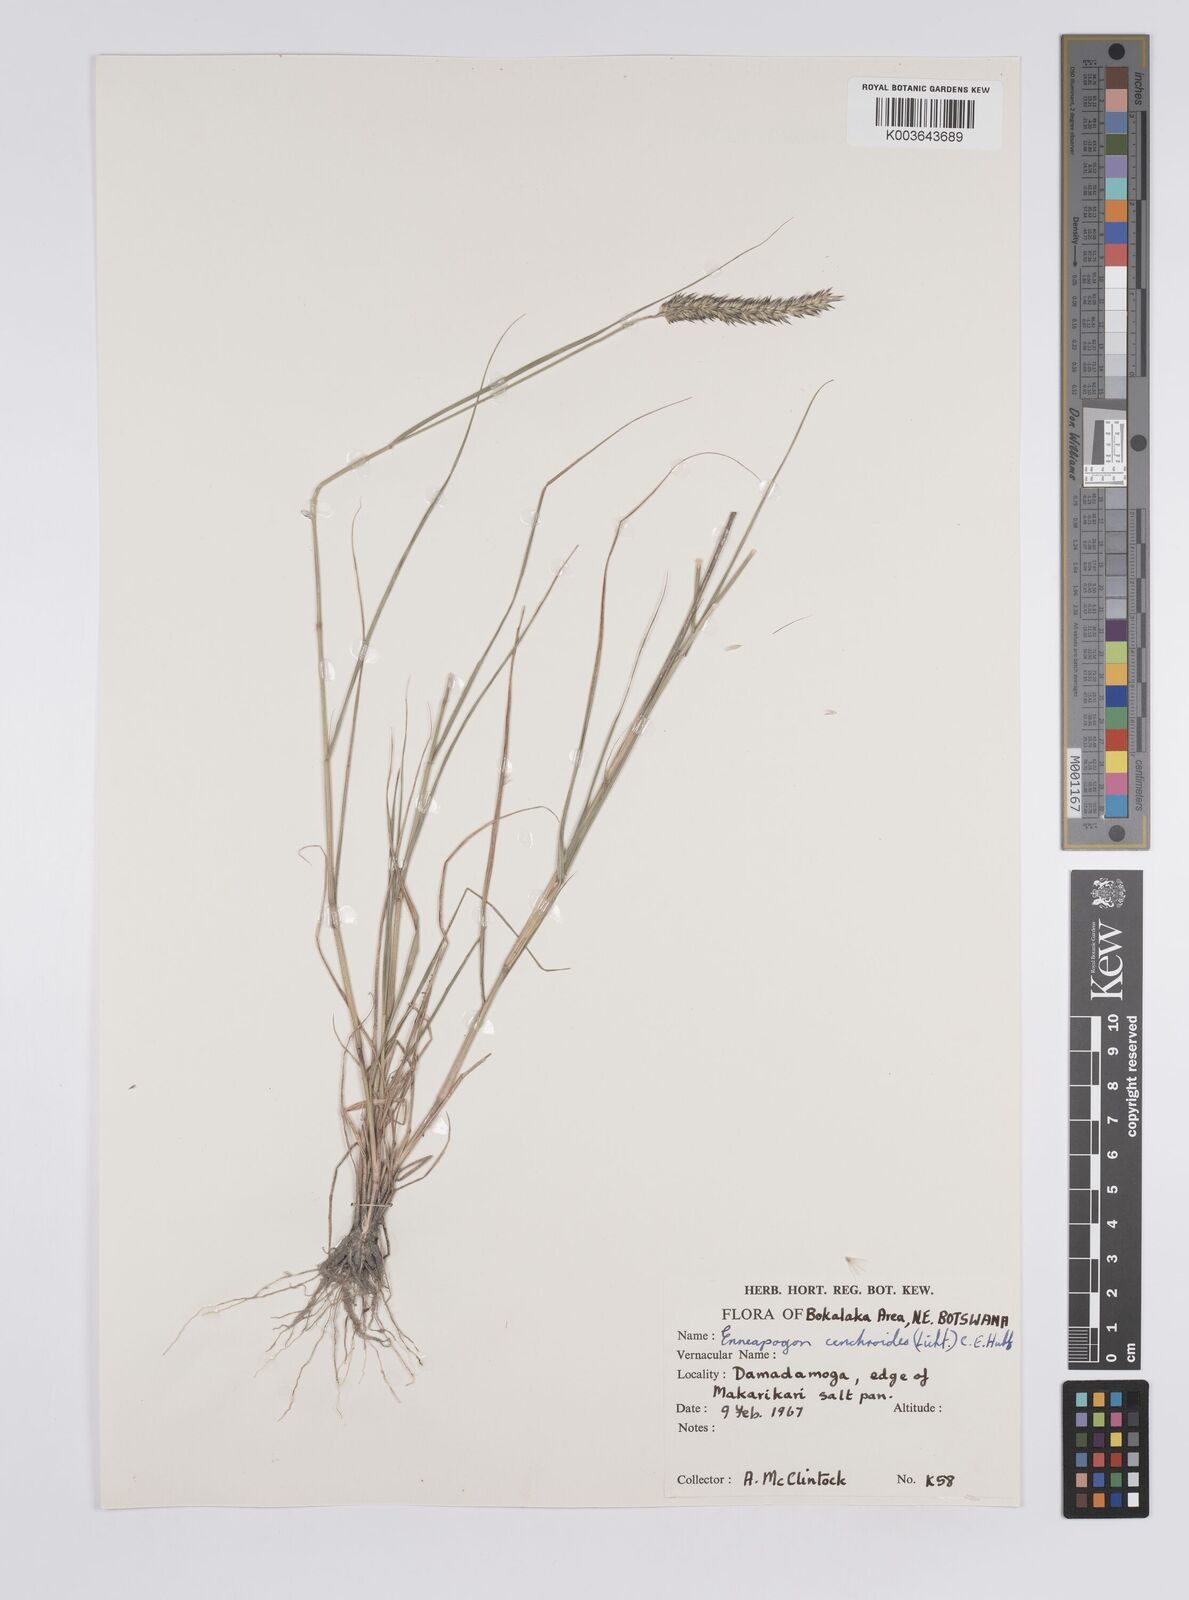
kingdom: Plantae
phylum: Tracheophyta
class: Liliopsida
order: Poales
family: Poaceae
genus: Enneapogon
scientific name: Enneapogon cenchroides
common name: Soft feather pappusgrass
